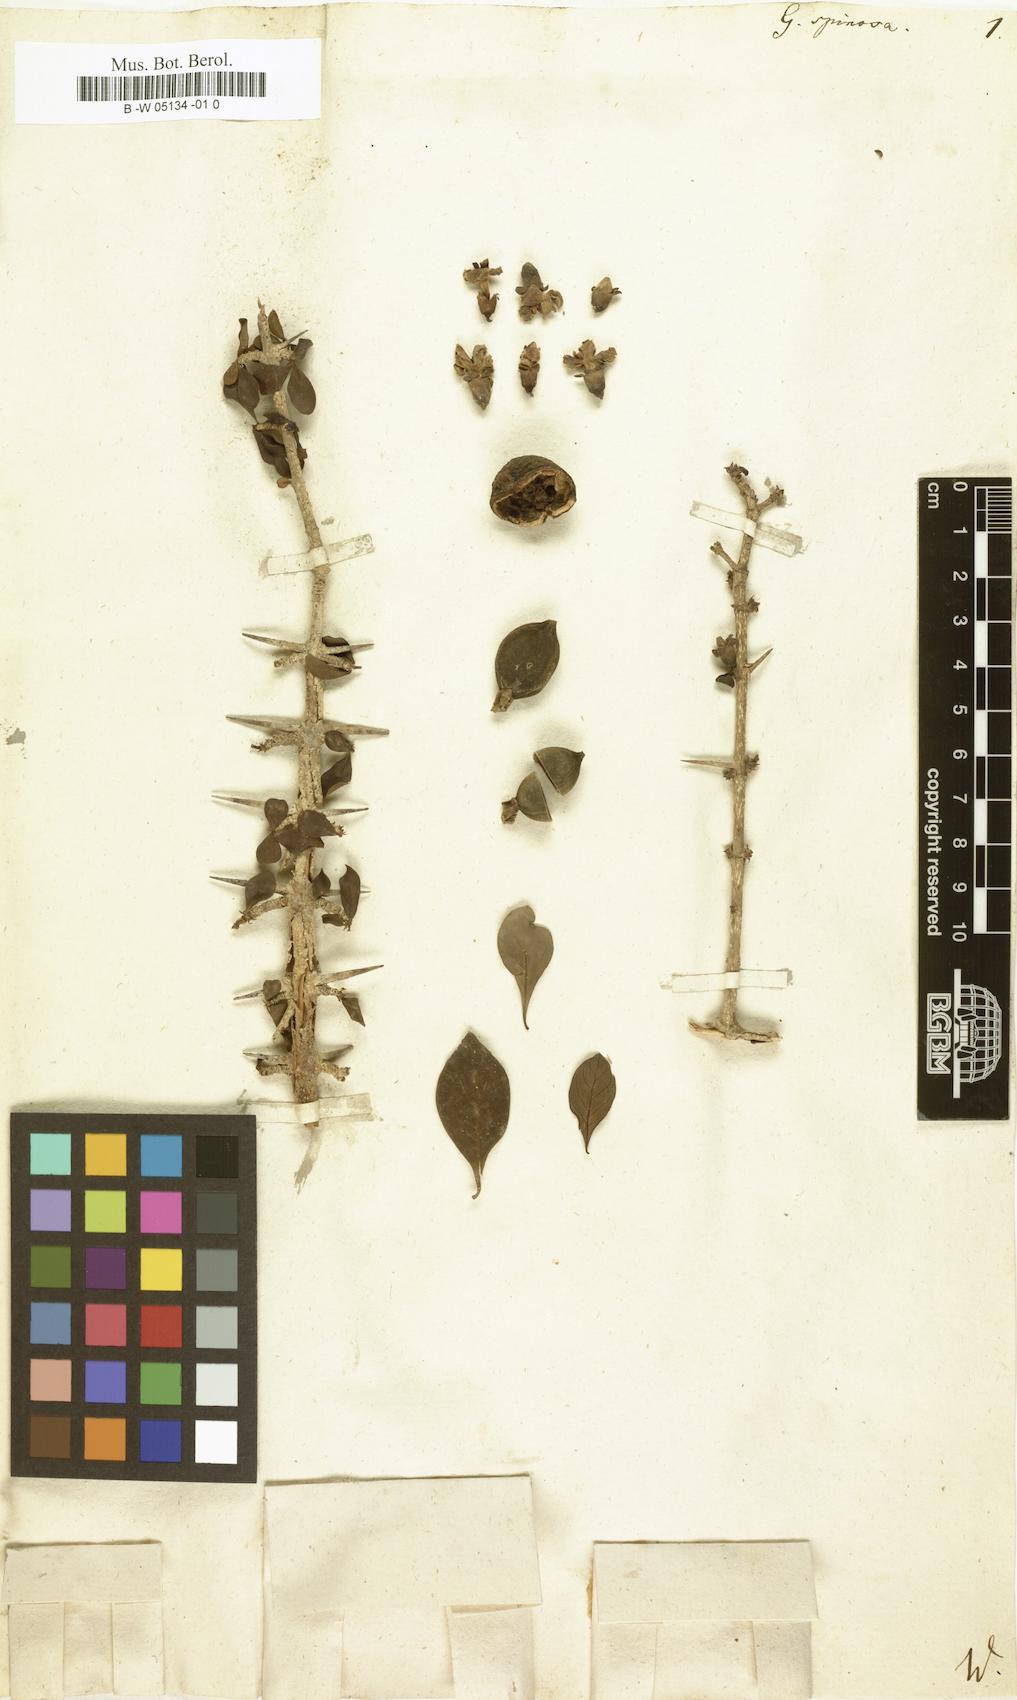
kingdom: Plantae
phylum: Tracheophyta
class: Magnoliopsida
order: Gentianales
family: Rubiaceae
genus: Catunaregam
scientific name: Catunaregam spinosa
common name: Emetic-nut
